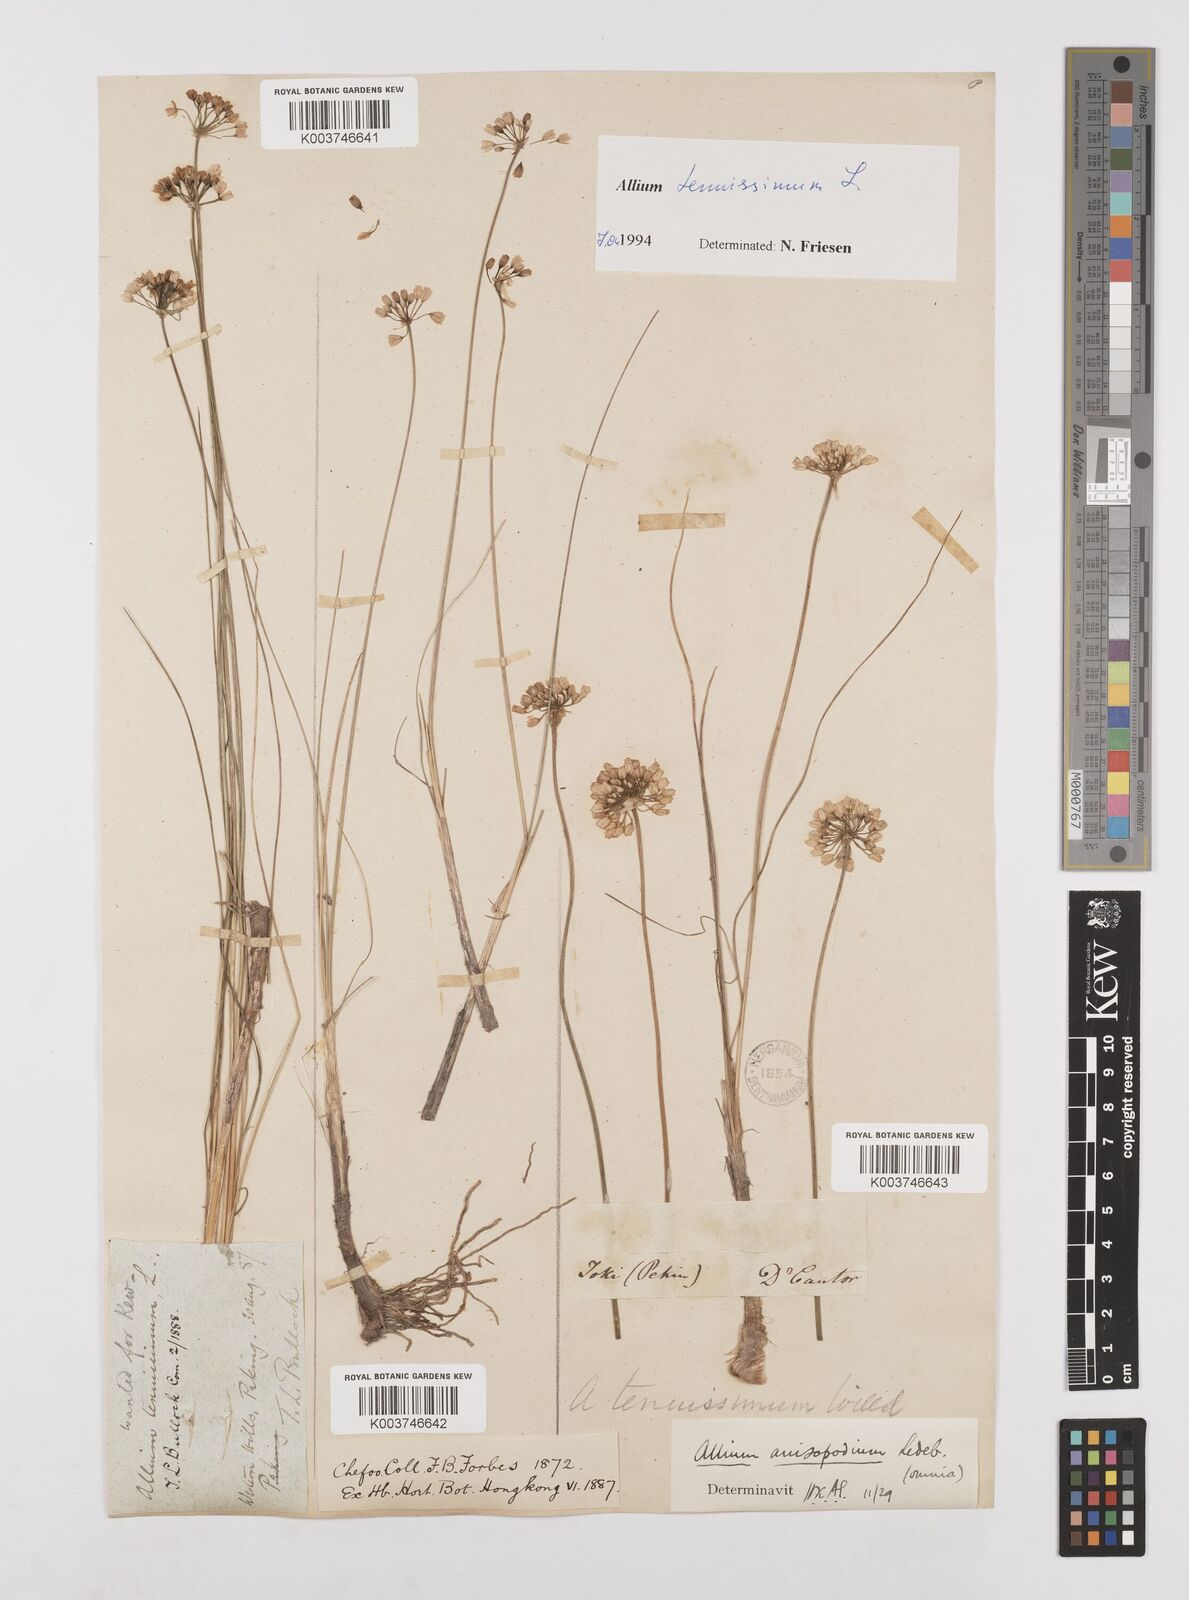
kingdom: Plantae
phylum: Tracheophyta
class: Liliopsida
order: Asparagales
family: Amaryllidaceae
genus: Allium
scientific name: Allium tenuissimum
